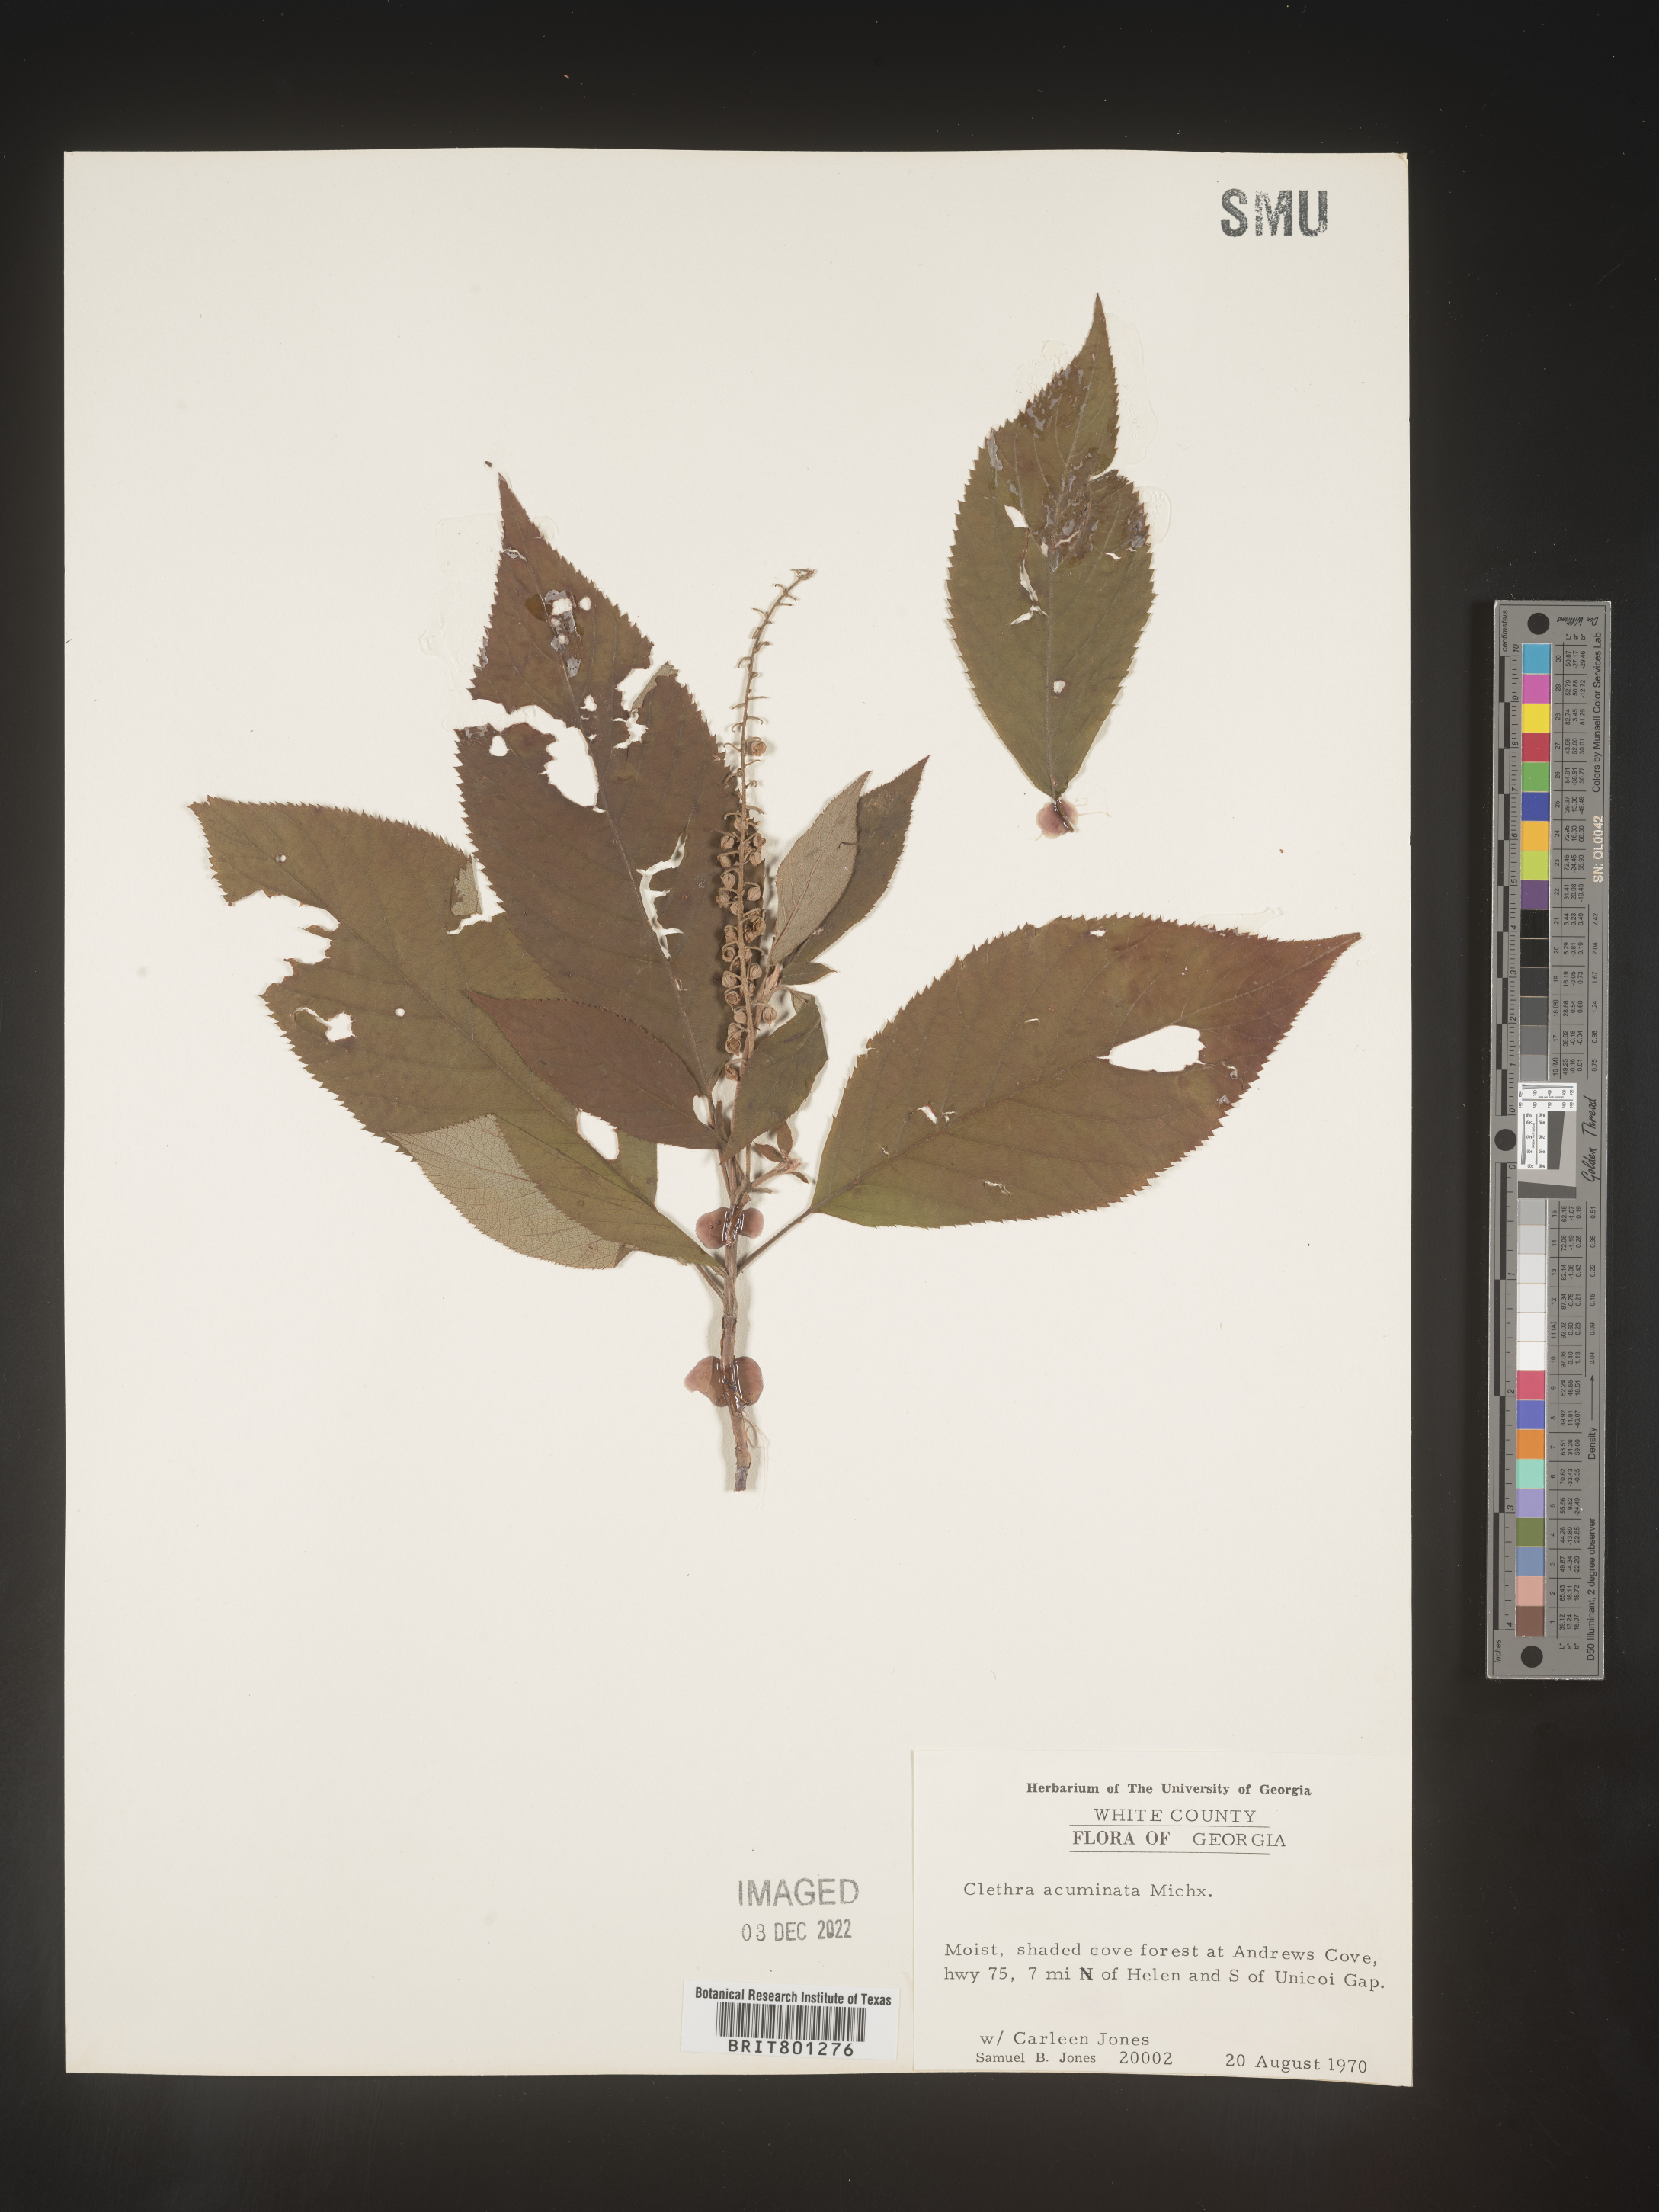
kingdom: Plantae
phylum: Tracheophyta
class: Magnoliopsida
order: Ericales
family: Clethraceae
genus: Clethra
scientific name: Clethra acuminata
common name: Mountain sweet pepperbush
